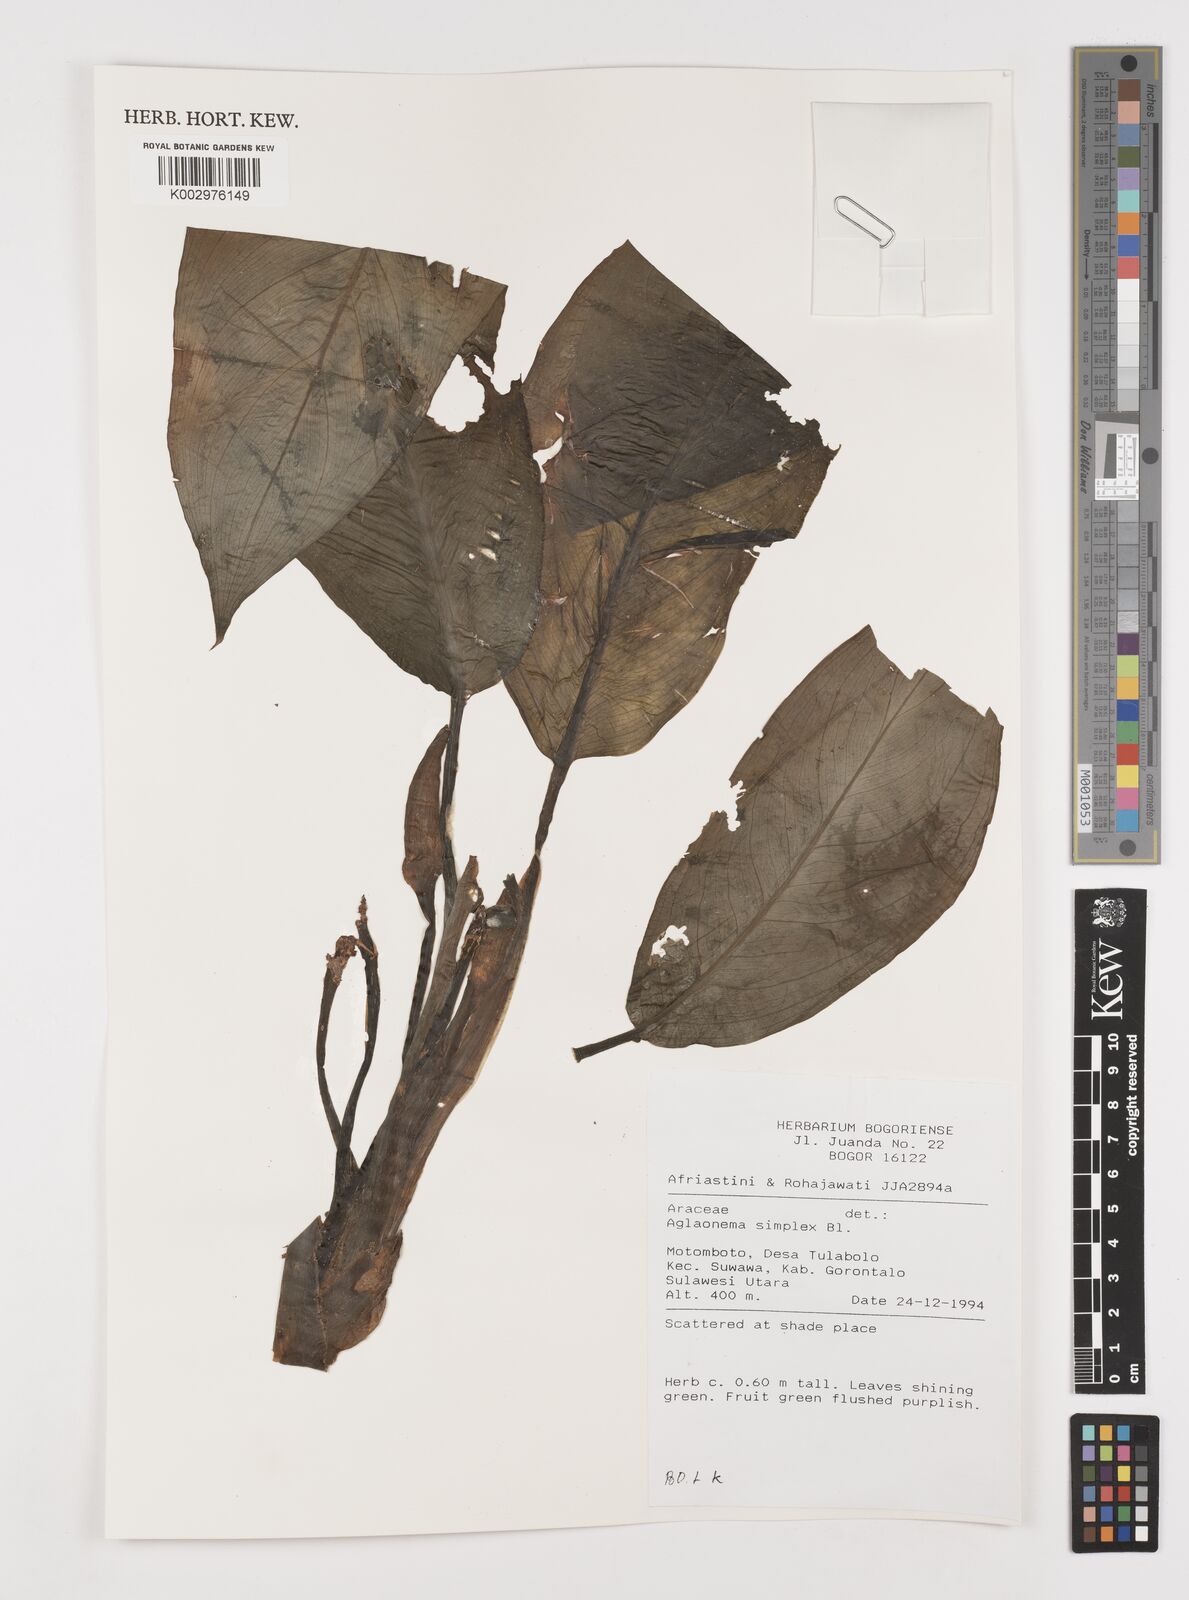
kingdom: Plantae
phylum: Tracheophyta
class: Liliopsida
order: Alismatales
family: Araceae
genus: Aglaonema
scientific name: Aglaonema simplex
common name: Malayan-sword
